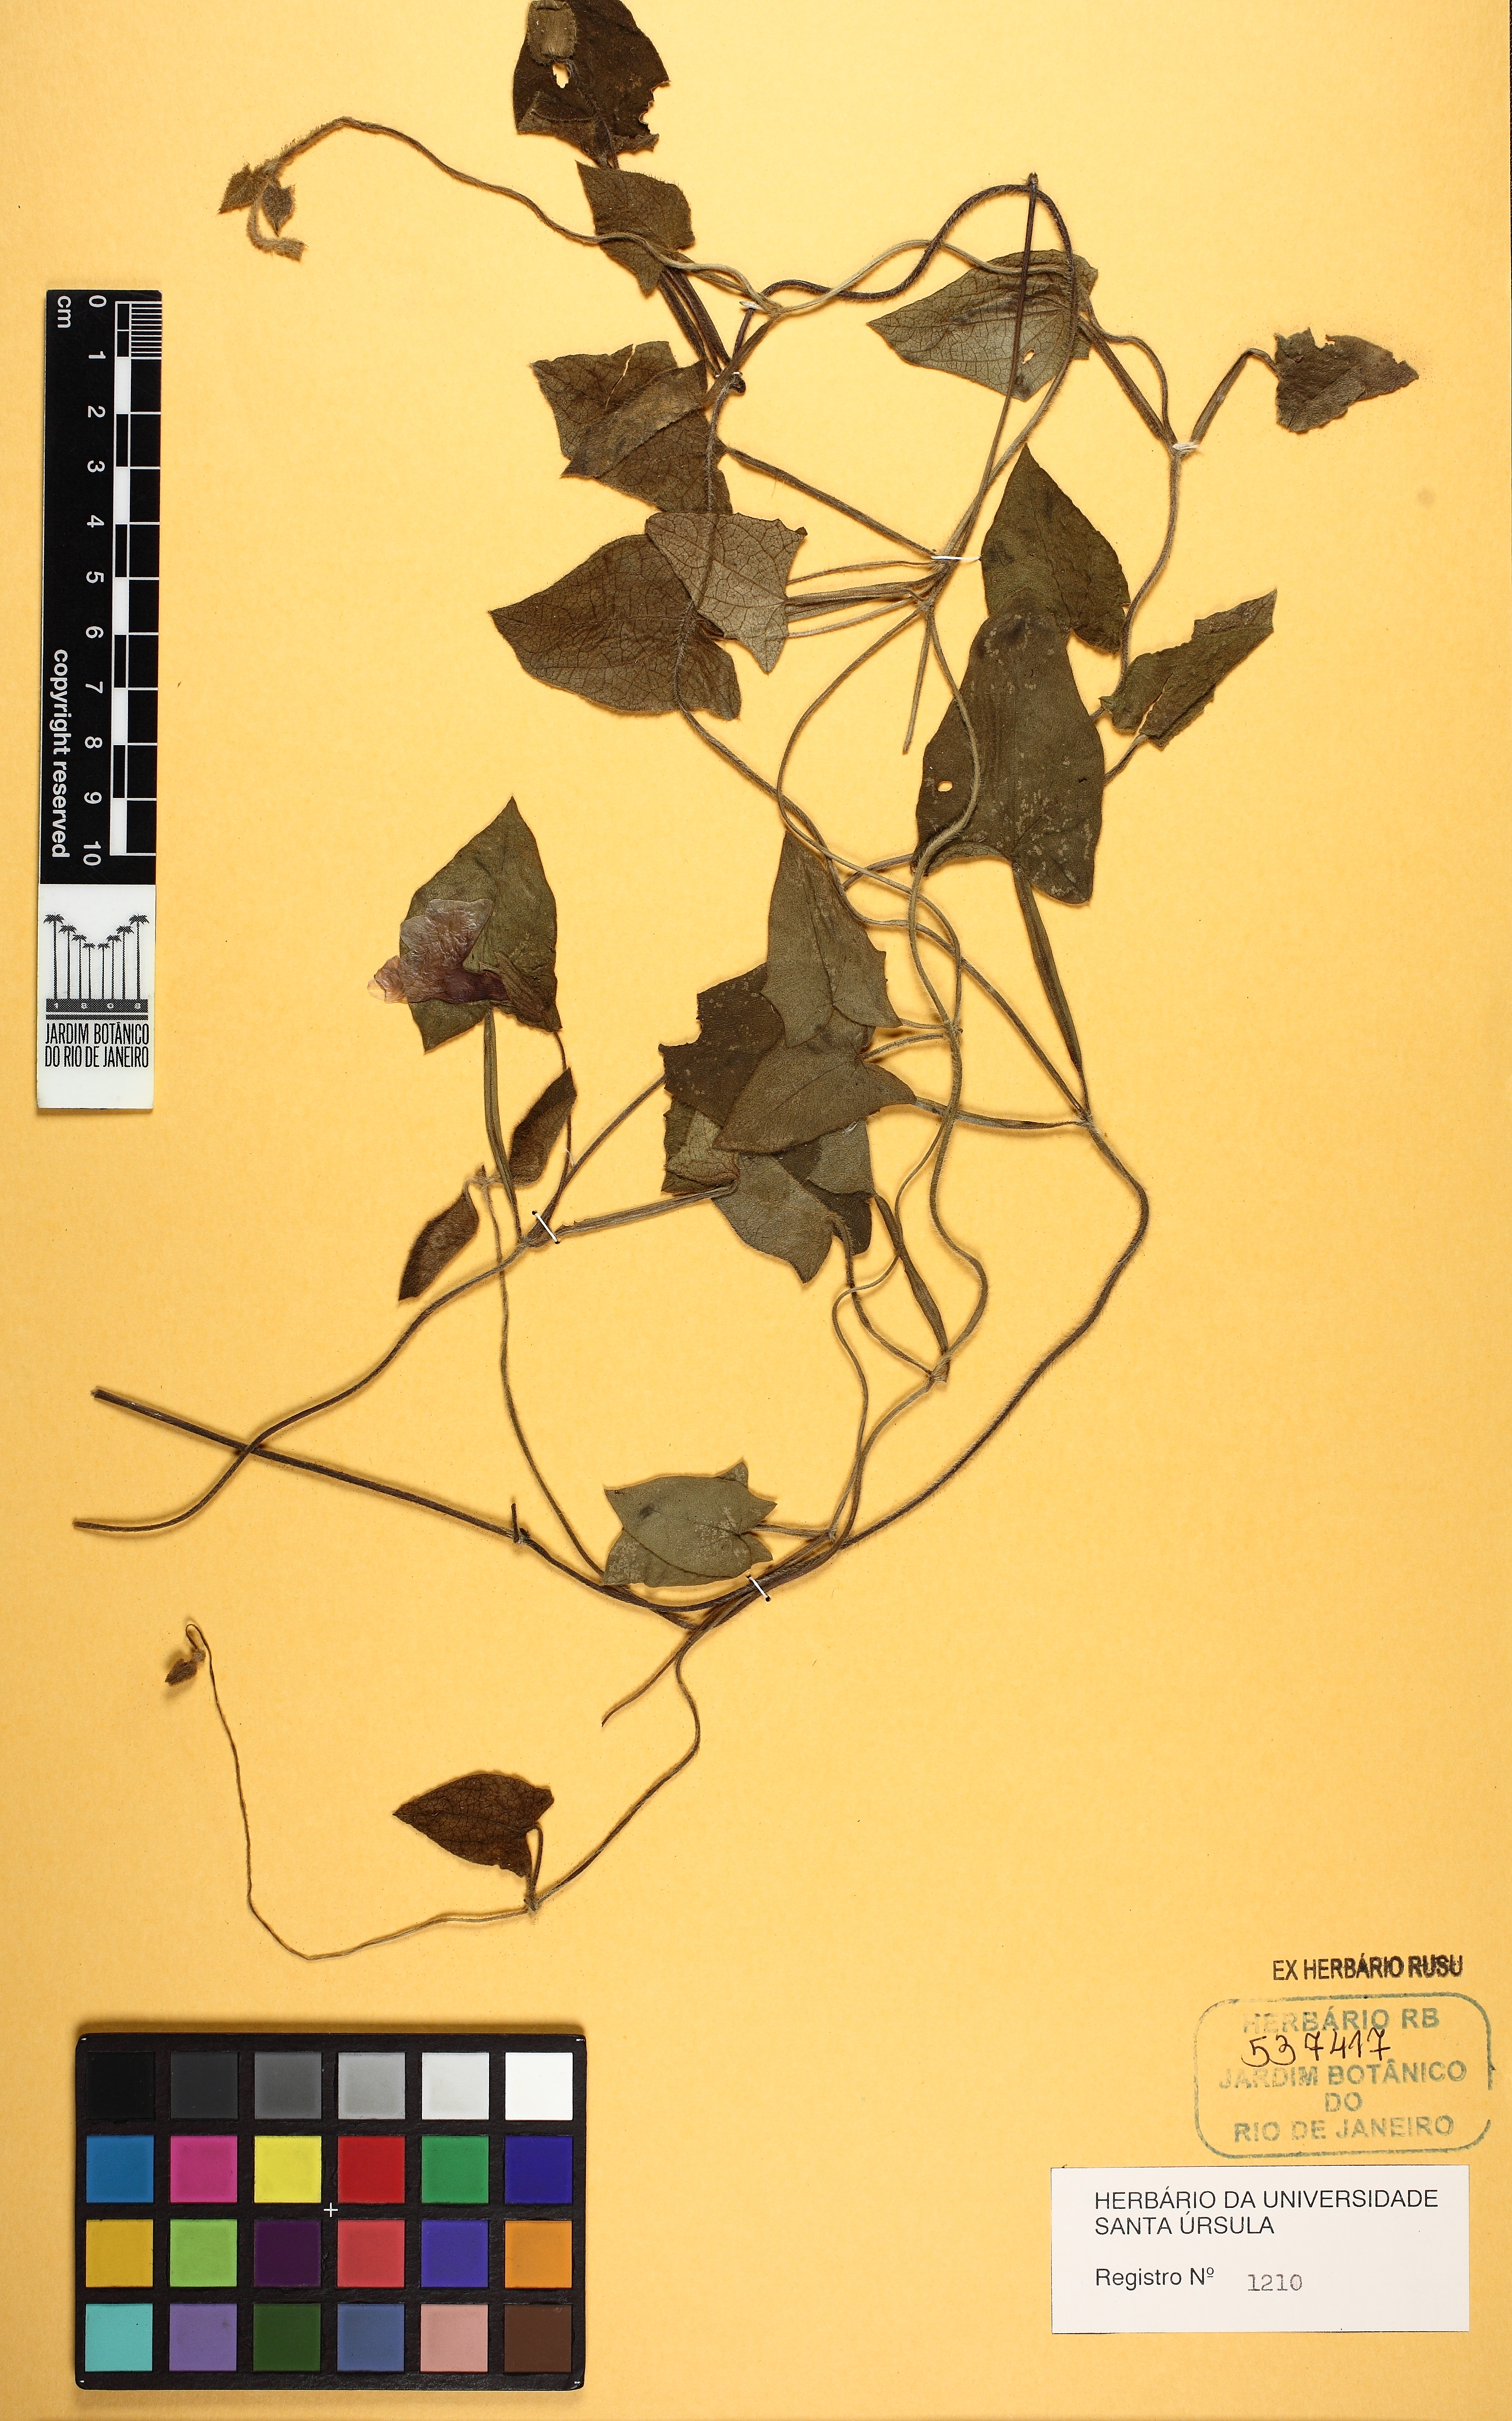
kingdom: Plantae
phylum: Tracheophyta
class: Magnoliopsida
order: Lamiales
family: Acanthaceae
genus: Thunbergia
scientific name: Thunbergia alata
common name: Blackeyed susan vine
